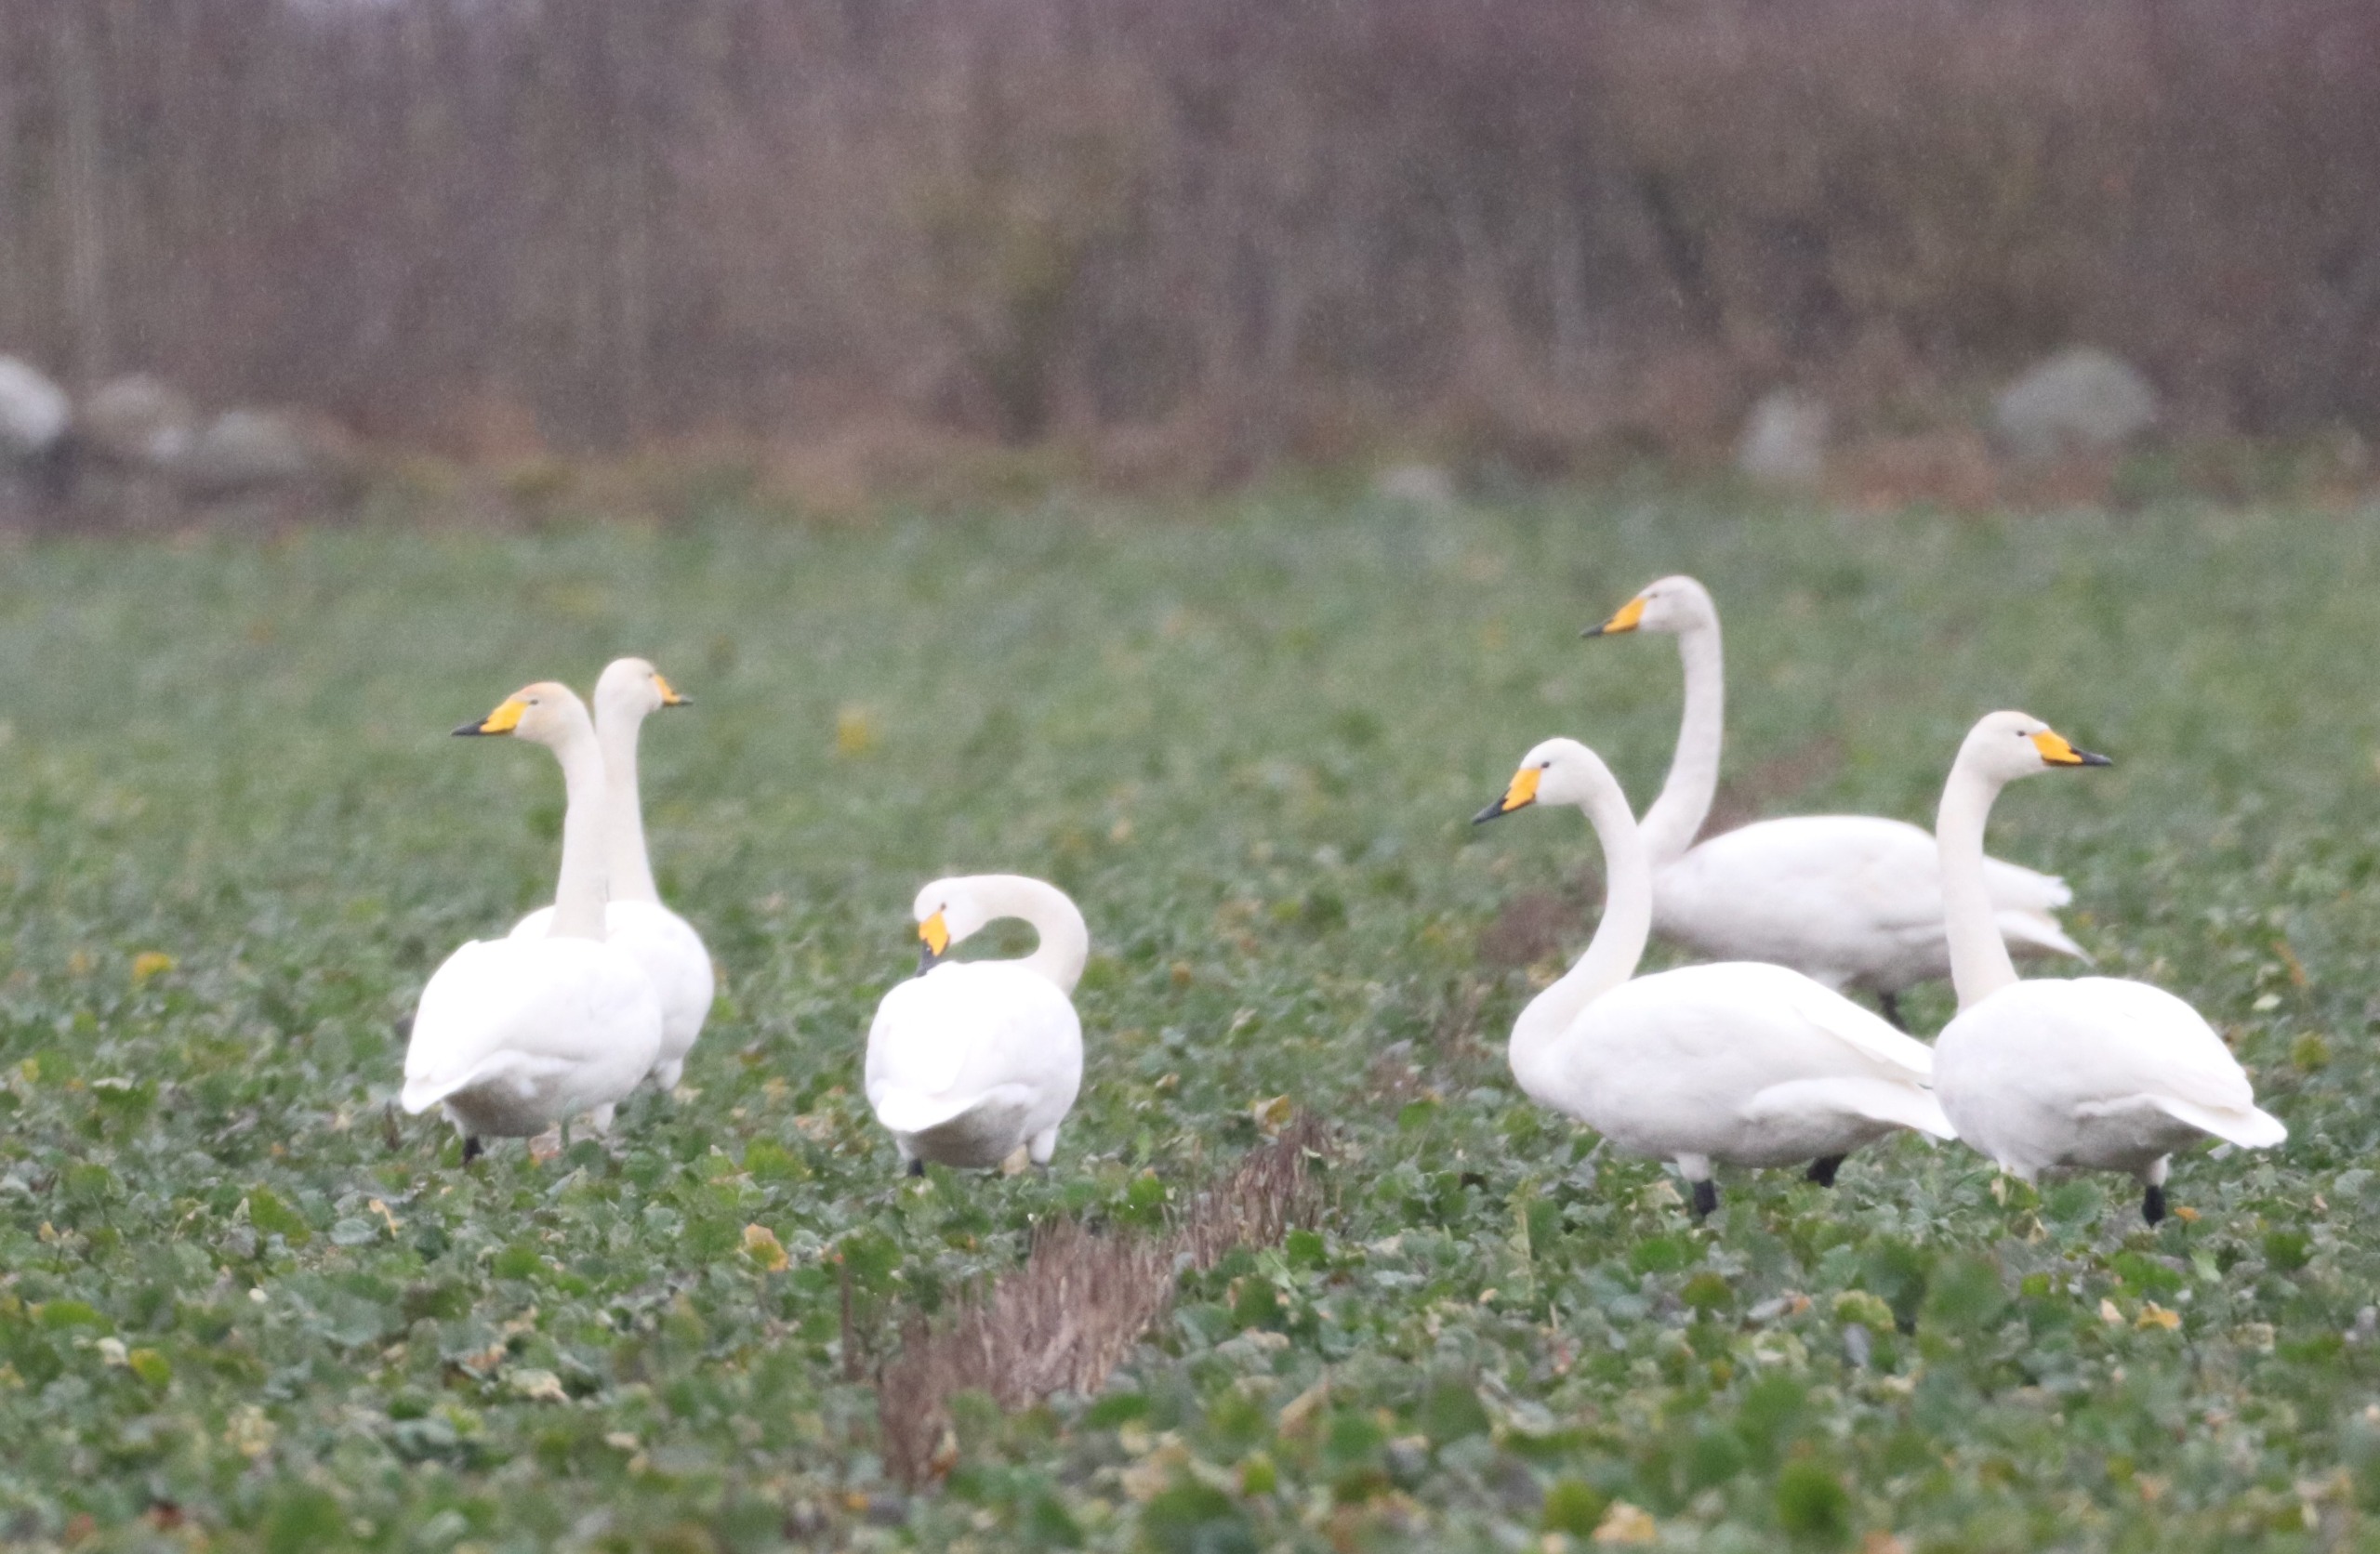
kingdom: Animalia
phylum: Chordata
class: Aves
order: Anseriformes
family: Anatidae
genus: Cygnus
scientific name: Cygnus cygnus
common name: Sangsvane
